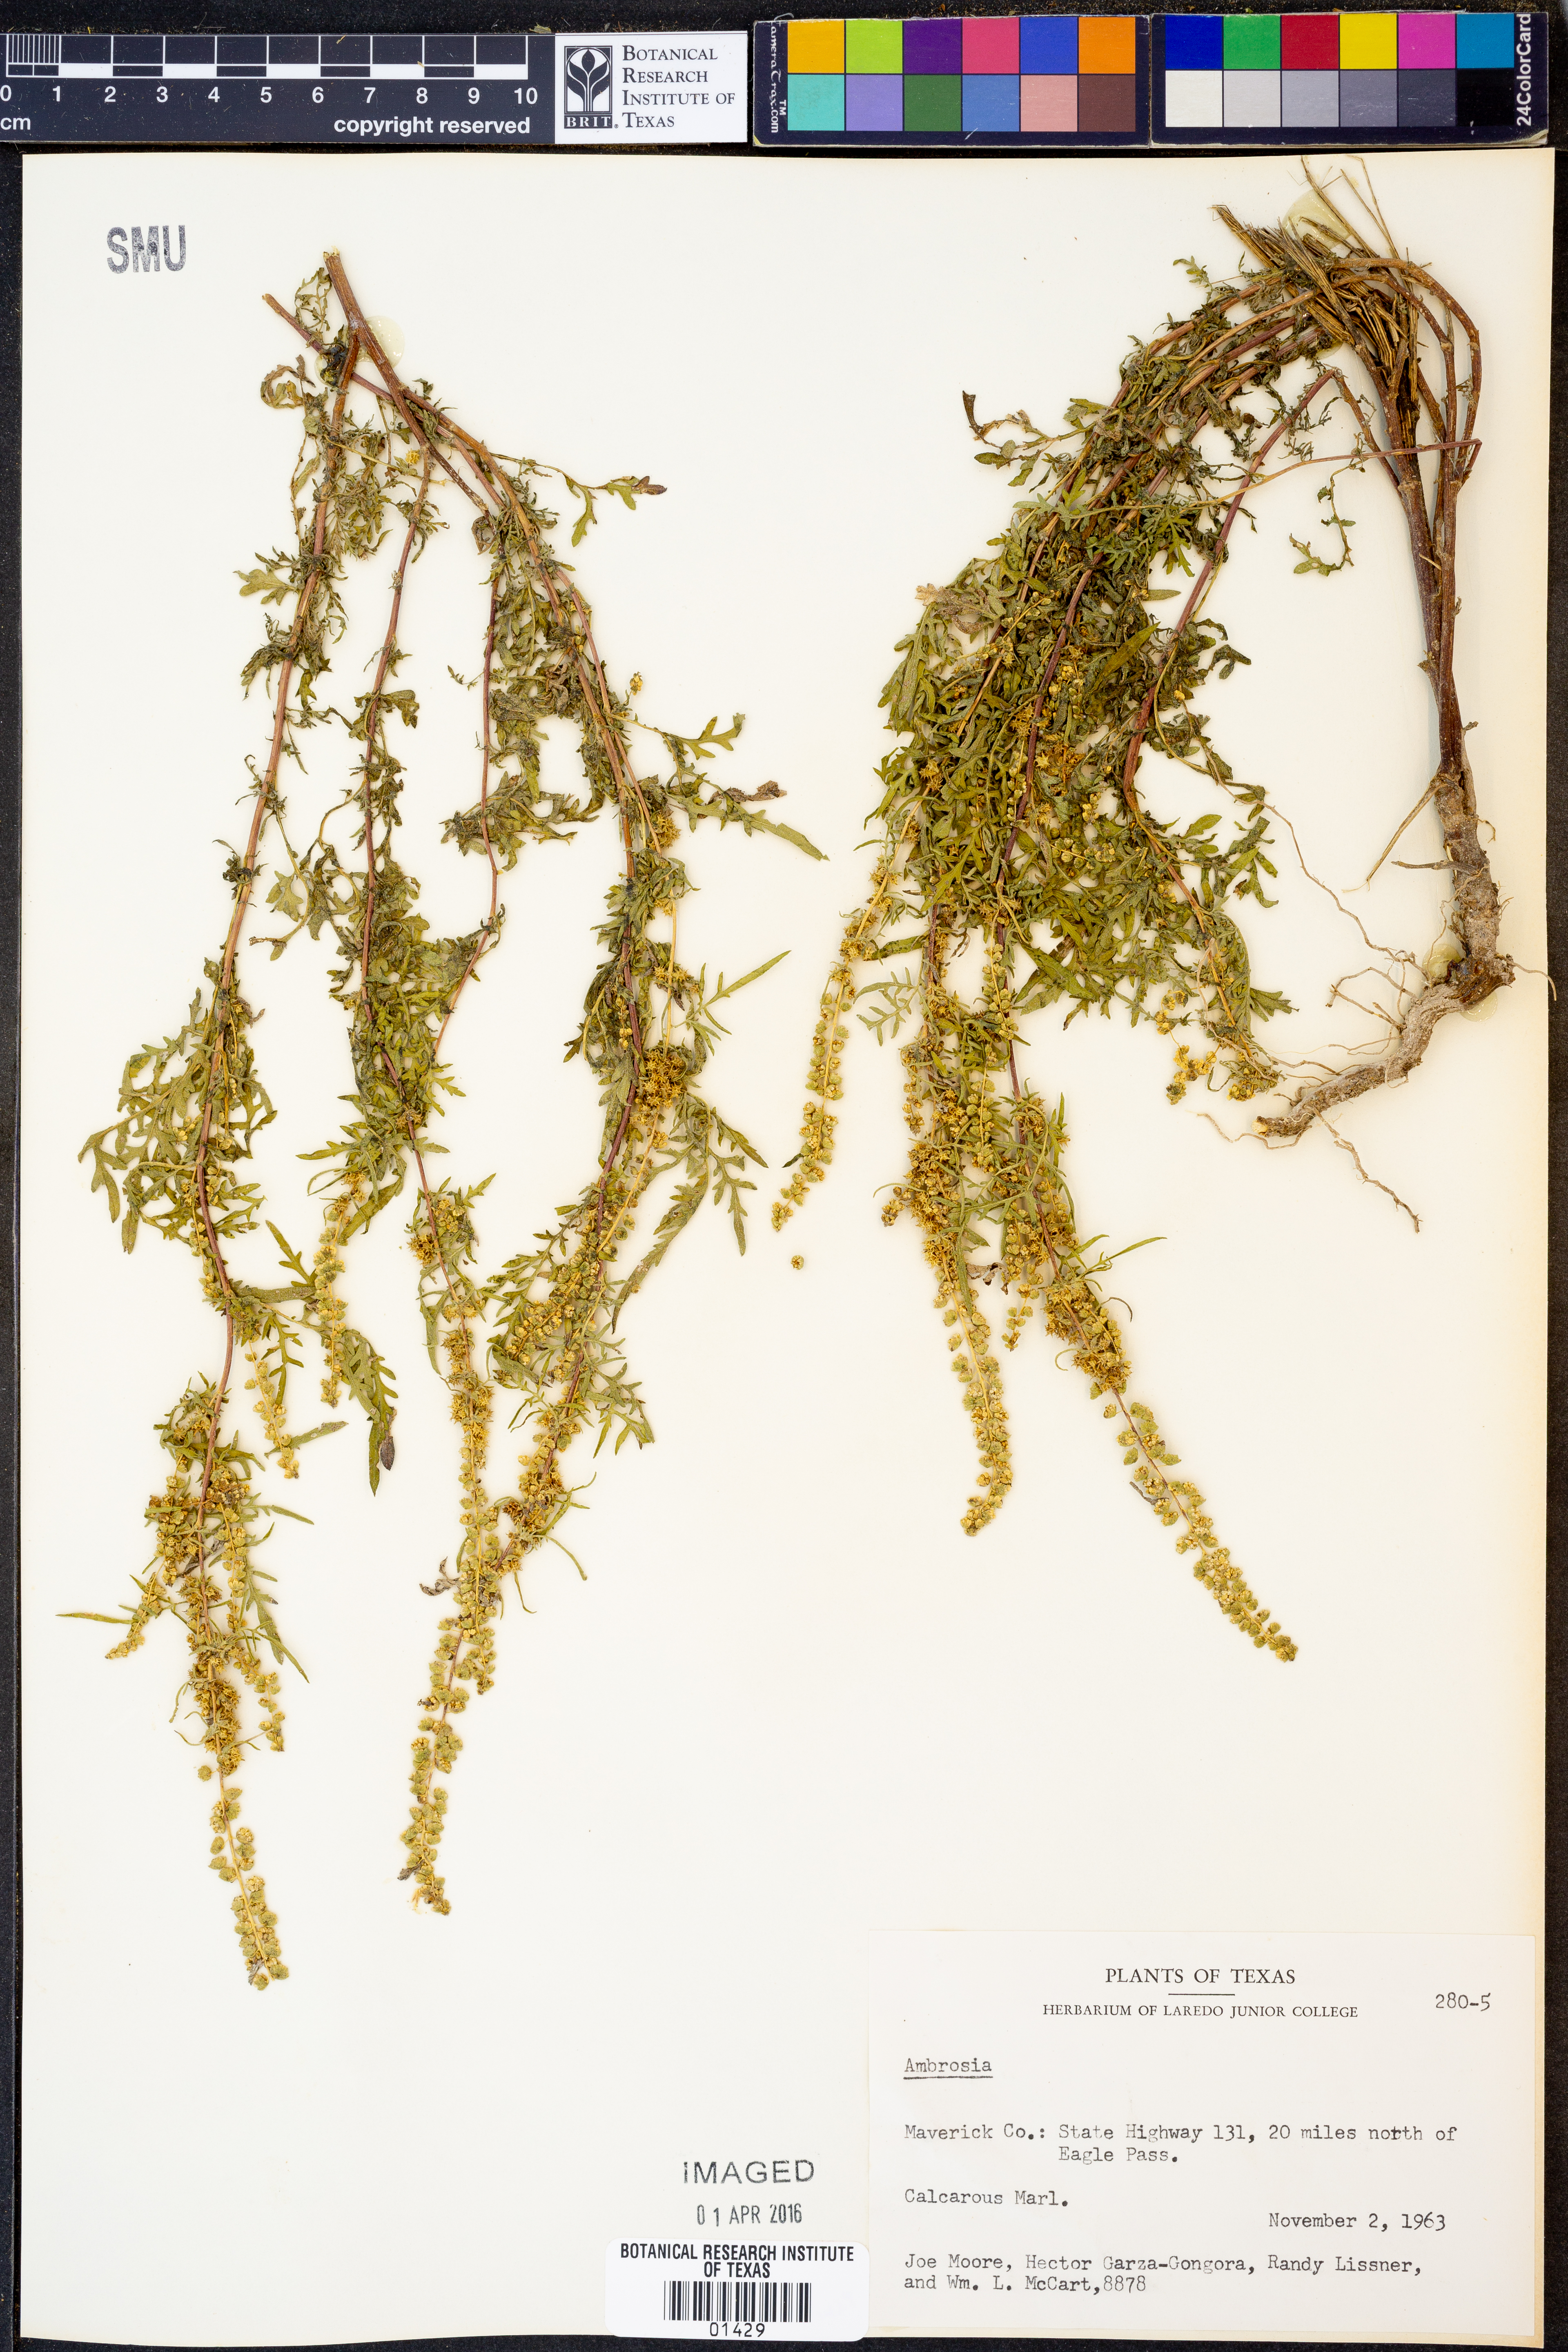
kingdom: Plantae
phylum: Tracheophyta
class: Magnoliopsida
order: Asterales
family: Asteraceae
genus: Ambrosia
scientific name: Ambrosia
